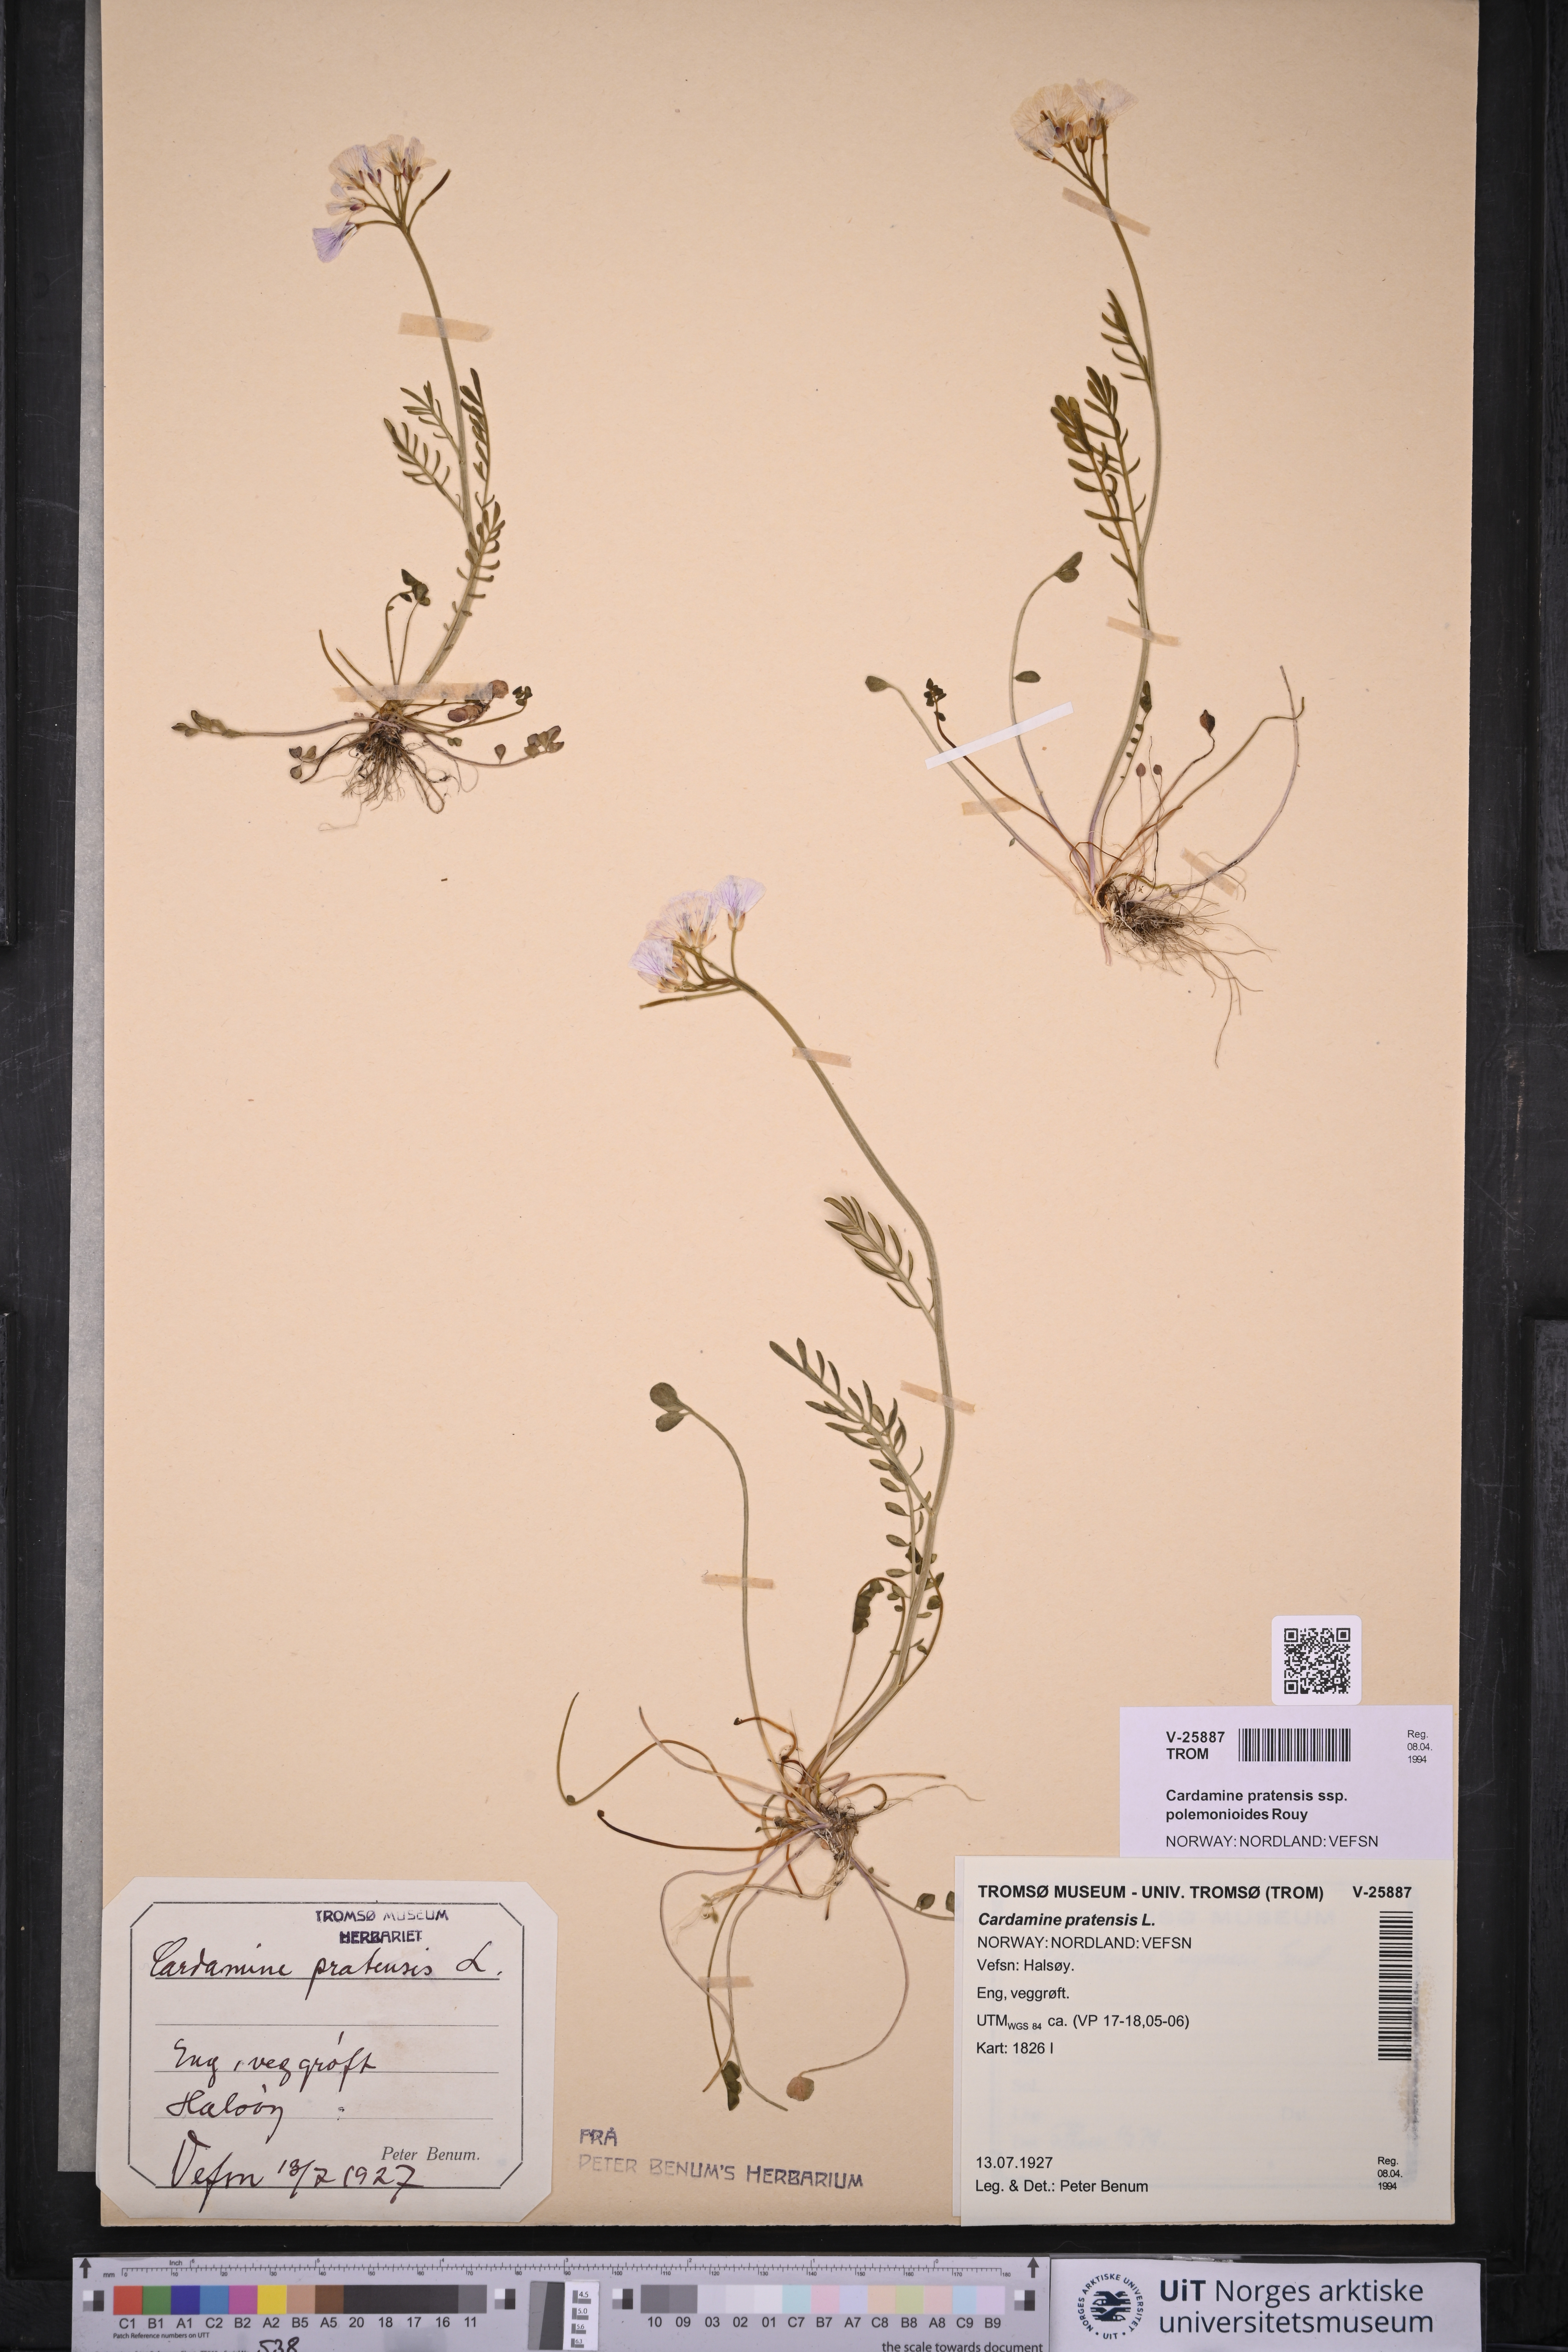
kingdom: Plantae
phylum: Tracheophyta
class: Magnoliopsida
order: Brassicales
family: Brassicaceae
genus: Cardamine
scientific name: Cardamine nymanii
